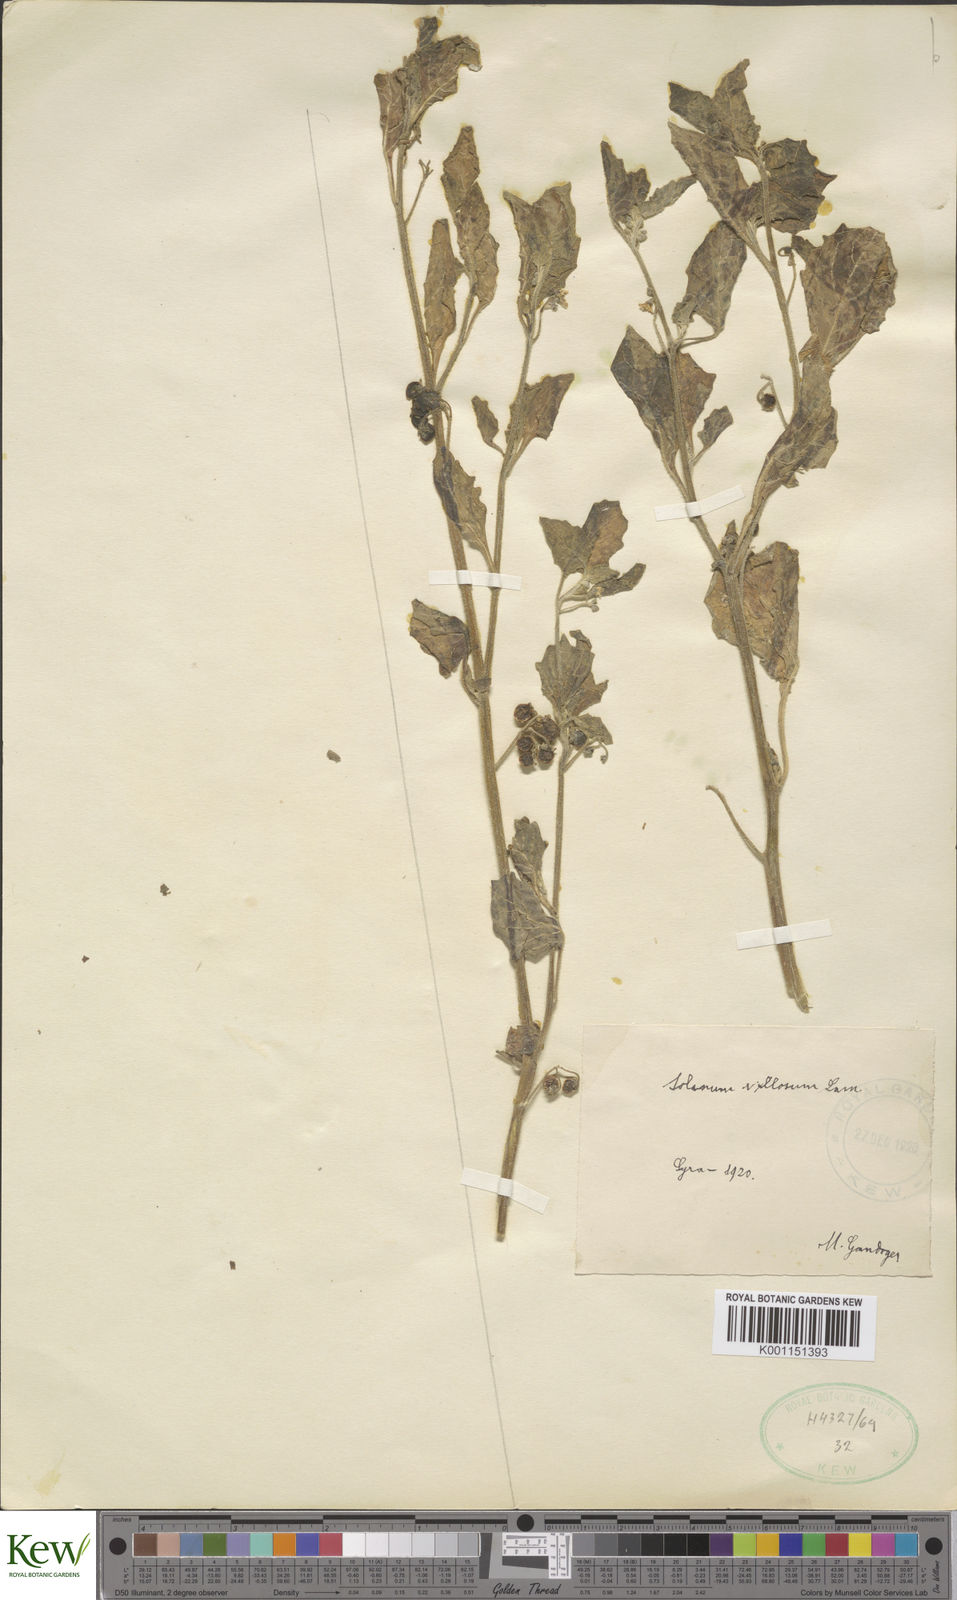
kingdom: Plantae
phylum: Tracheophyta
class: Magnoliopsida
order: Solanales
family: Solanaceae
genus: Solanum
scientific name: Solanum villosum
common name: Red nightshade
